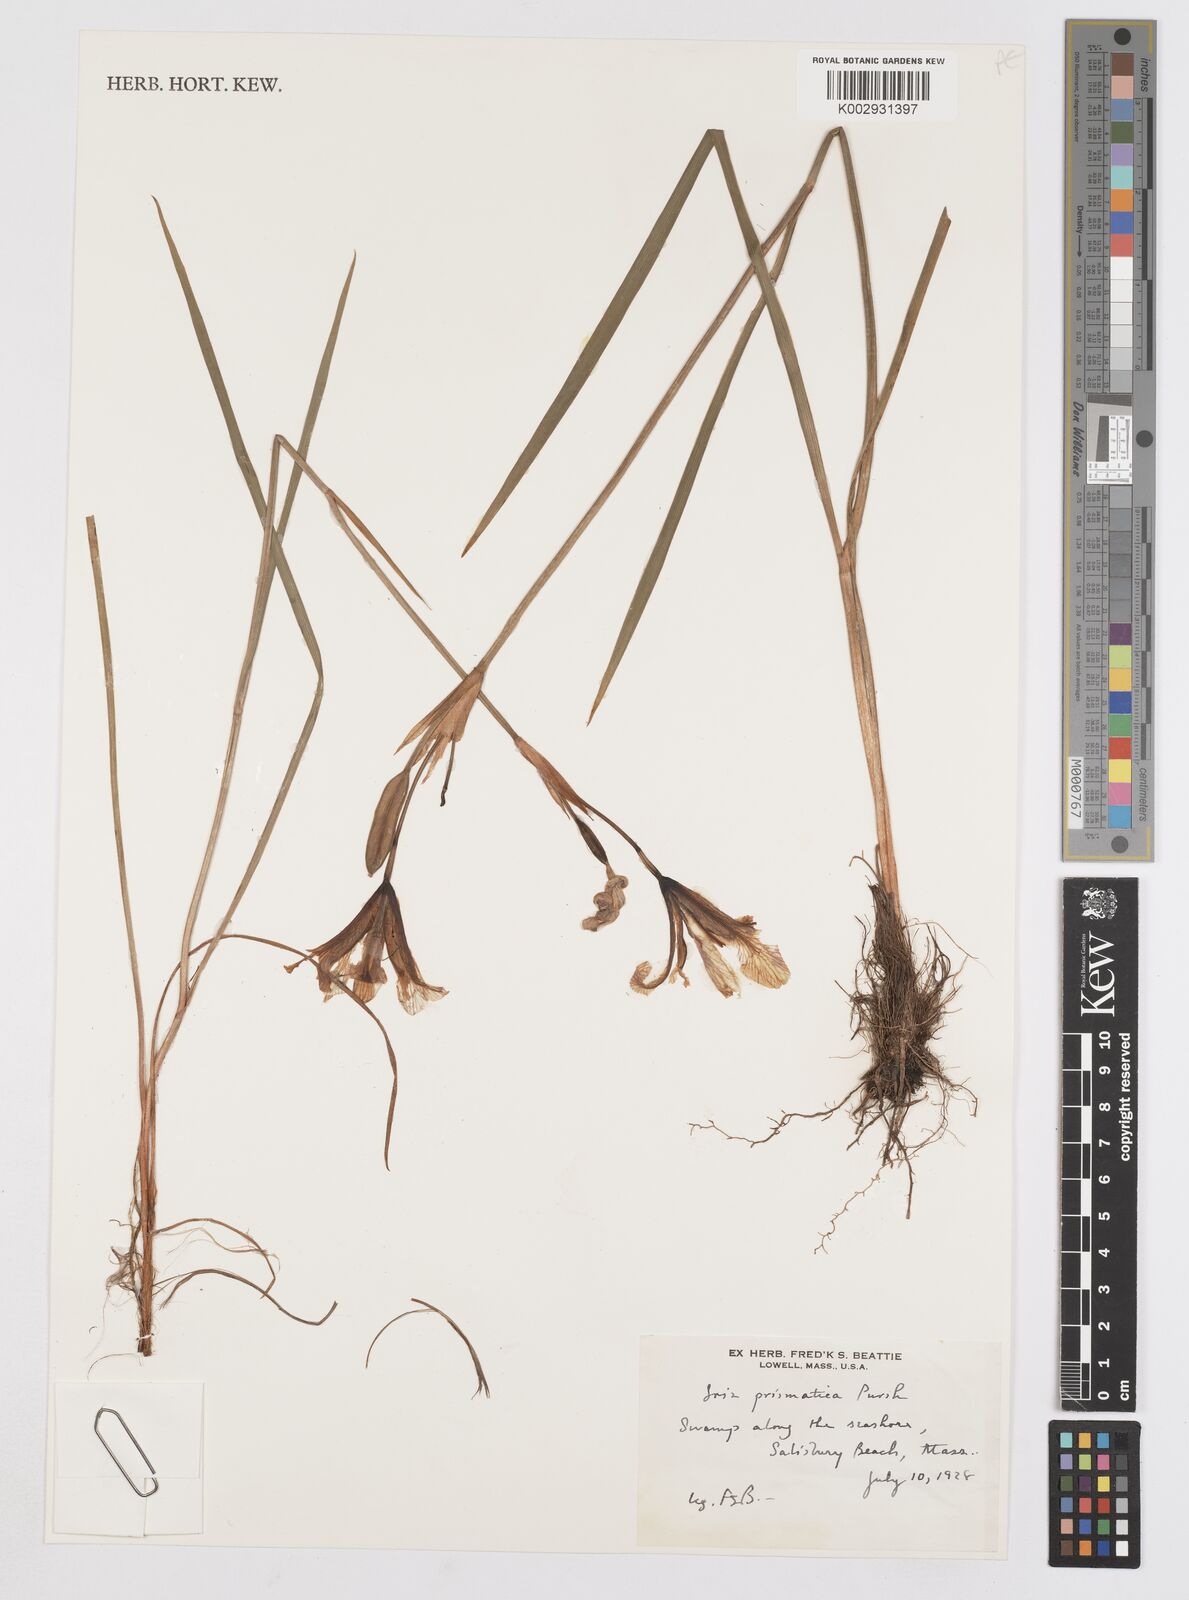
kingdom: Plantae
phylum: Tracheophyta
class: Liliopsida
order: Asparagales
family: Iridaceae
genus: Iris
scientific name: Iris prismatica
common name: Slender blue flag
